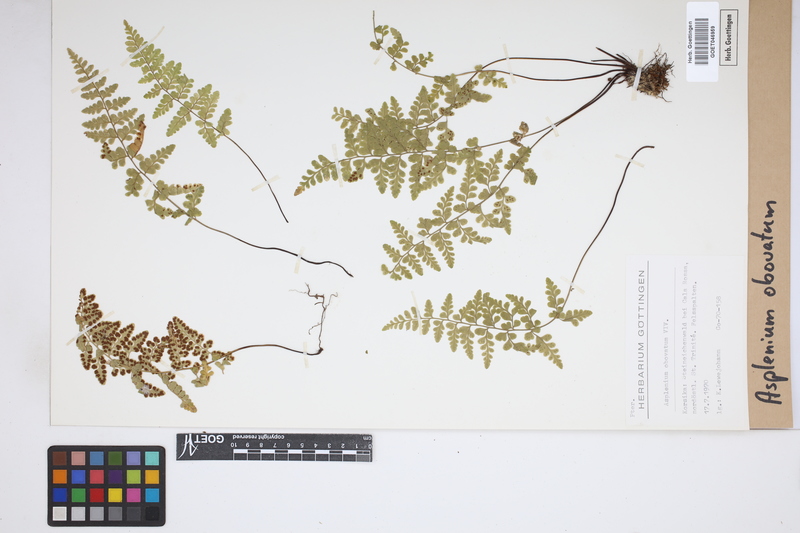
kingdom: Plantae
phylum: Tracheophyta
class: Polypodiopsida
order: Polypodiales
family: Aspleniaceae
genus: Asplenium
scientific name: Asplenium obovatum
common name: Lanceolate spleenwort
